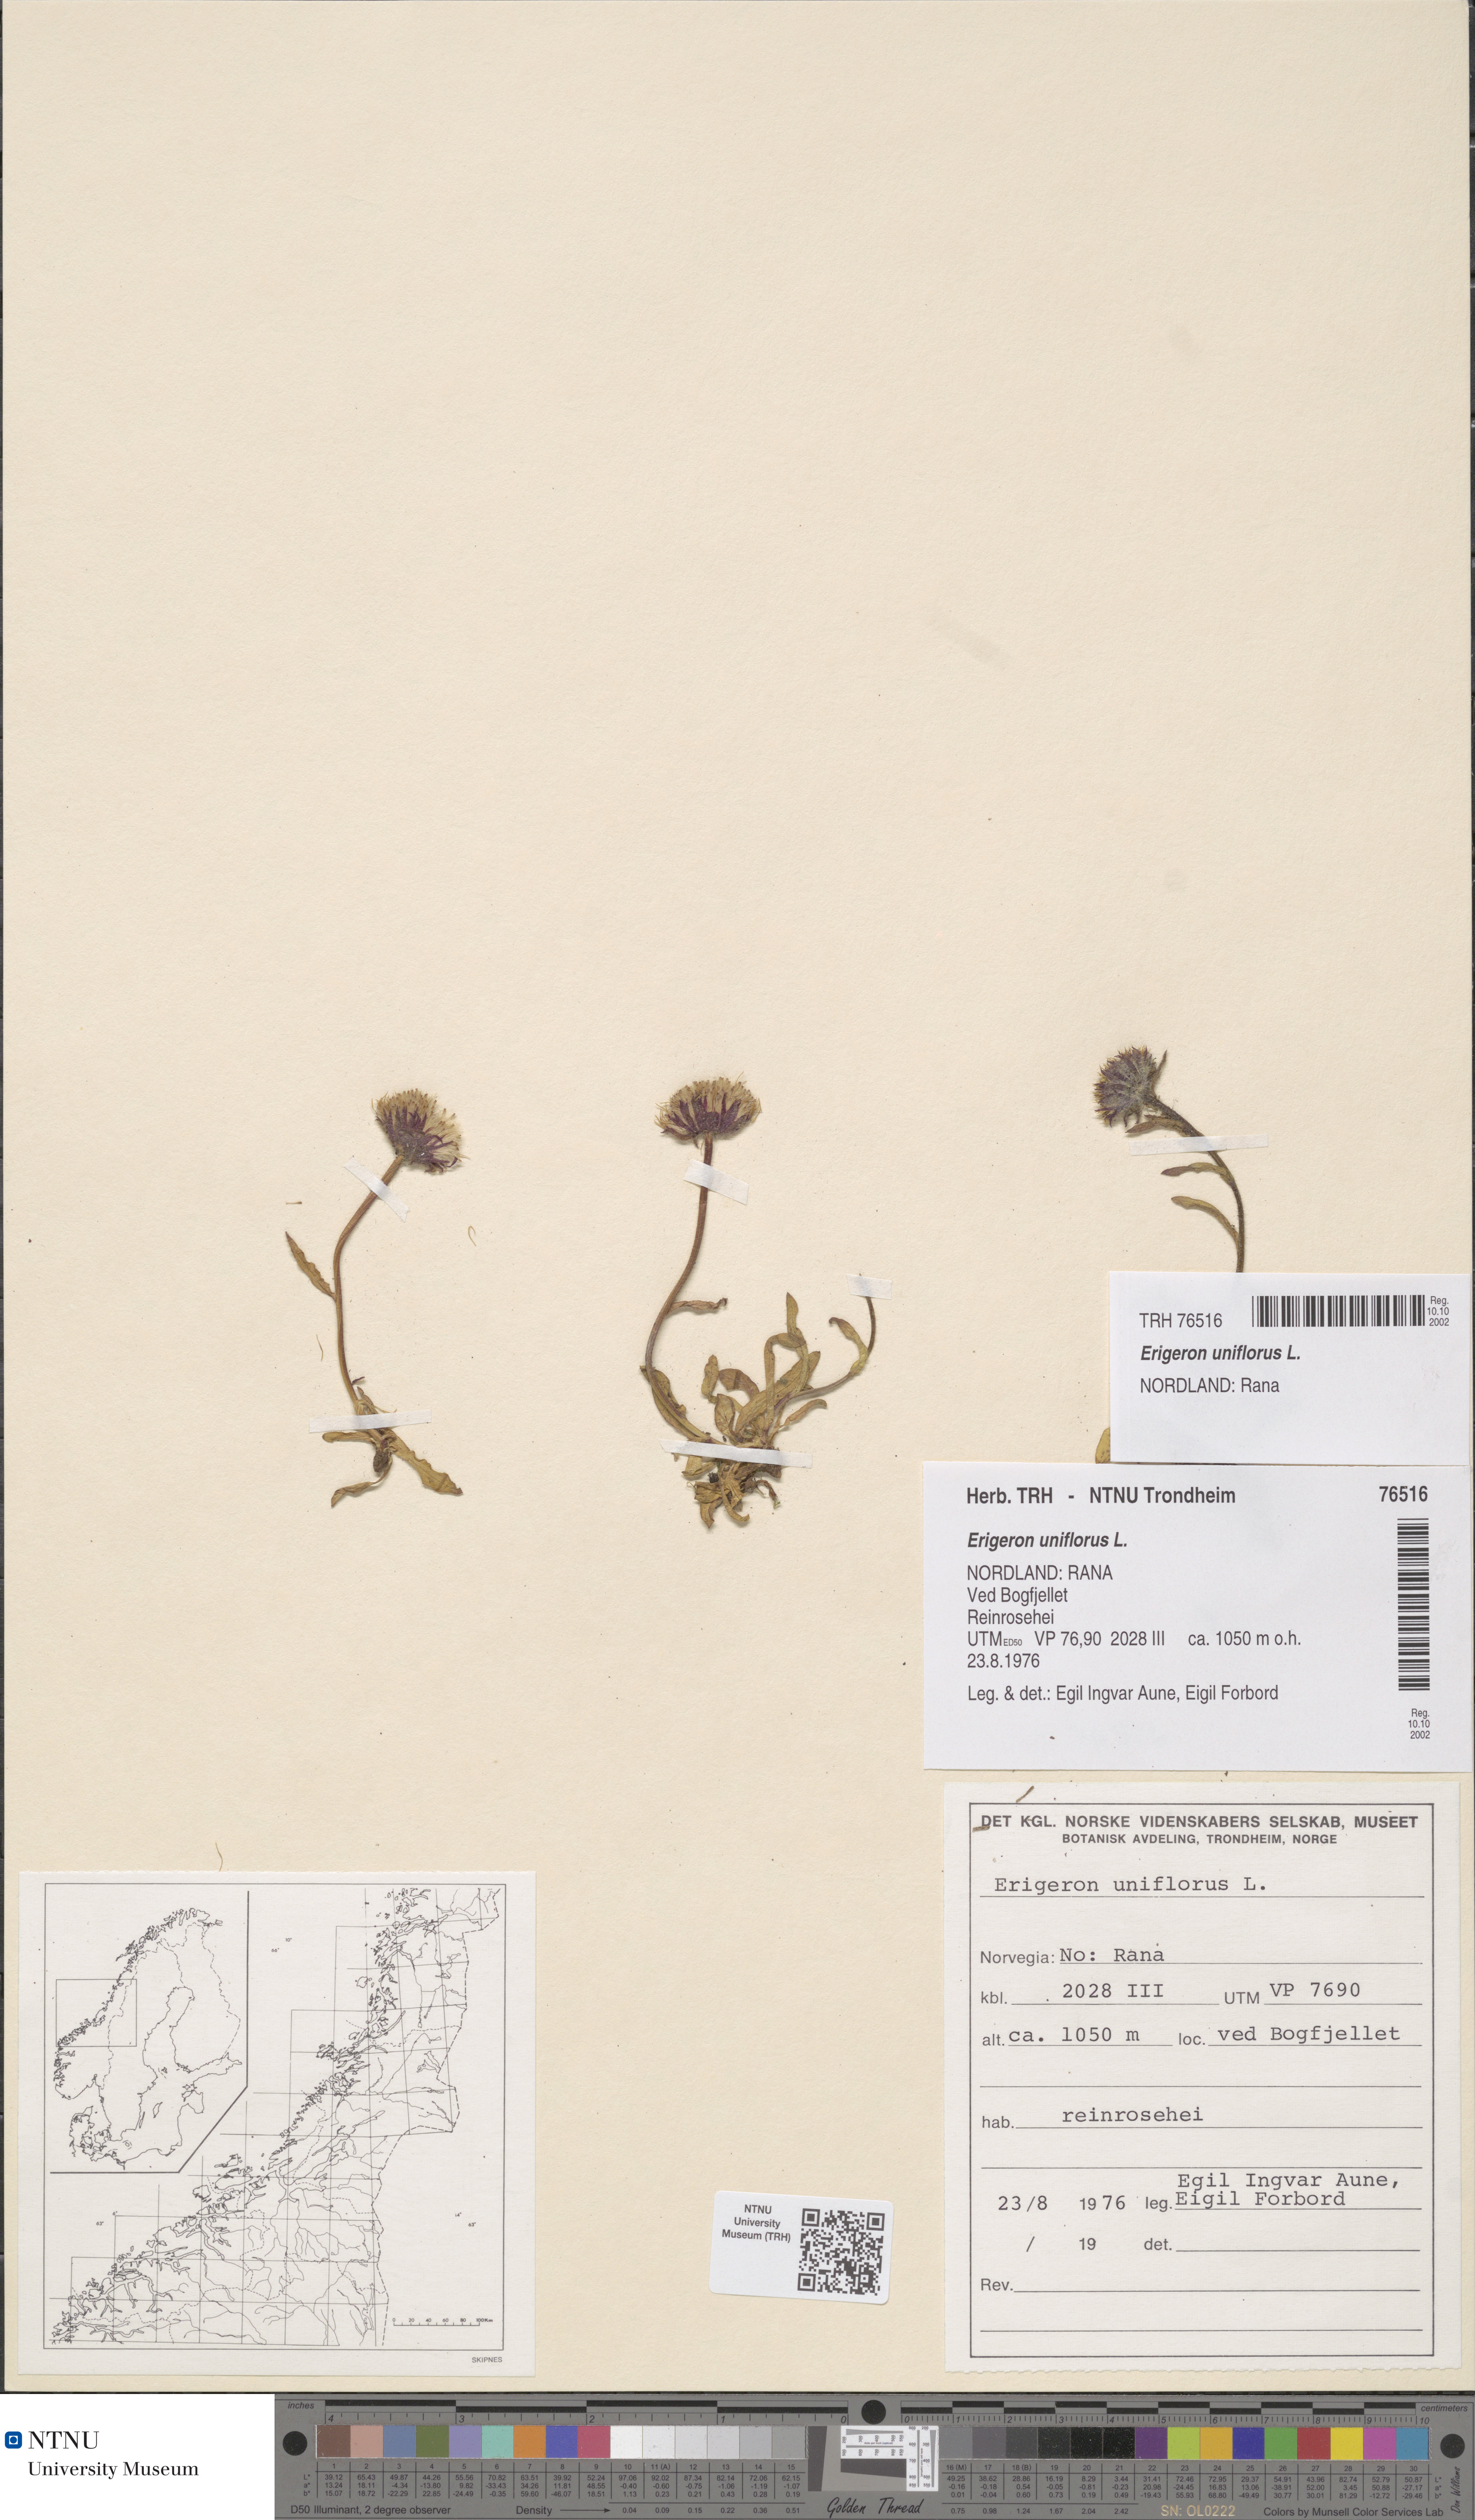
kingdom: Plantae
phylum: Tracheophyta
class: Magnoliopsida
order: Asterales
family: Asteraceae
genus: Erigeron
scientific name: Erigeron uniflorus
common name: Northern daisy
